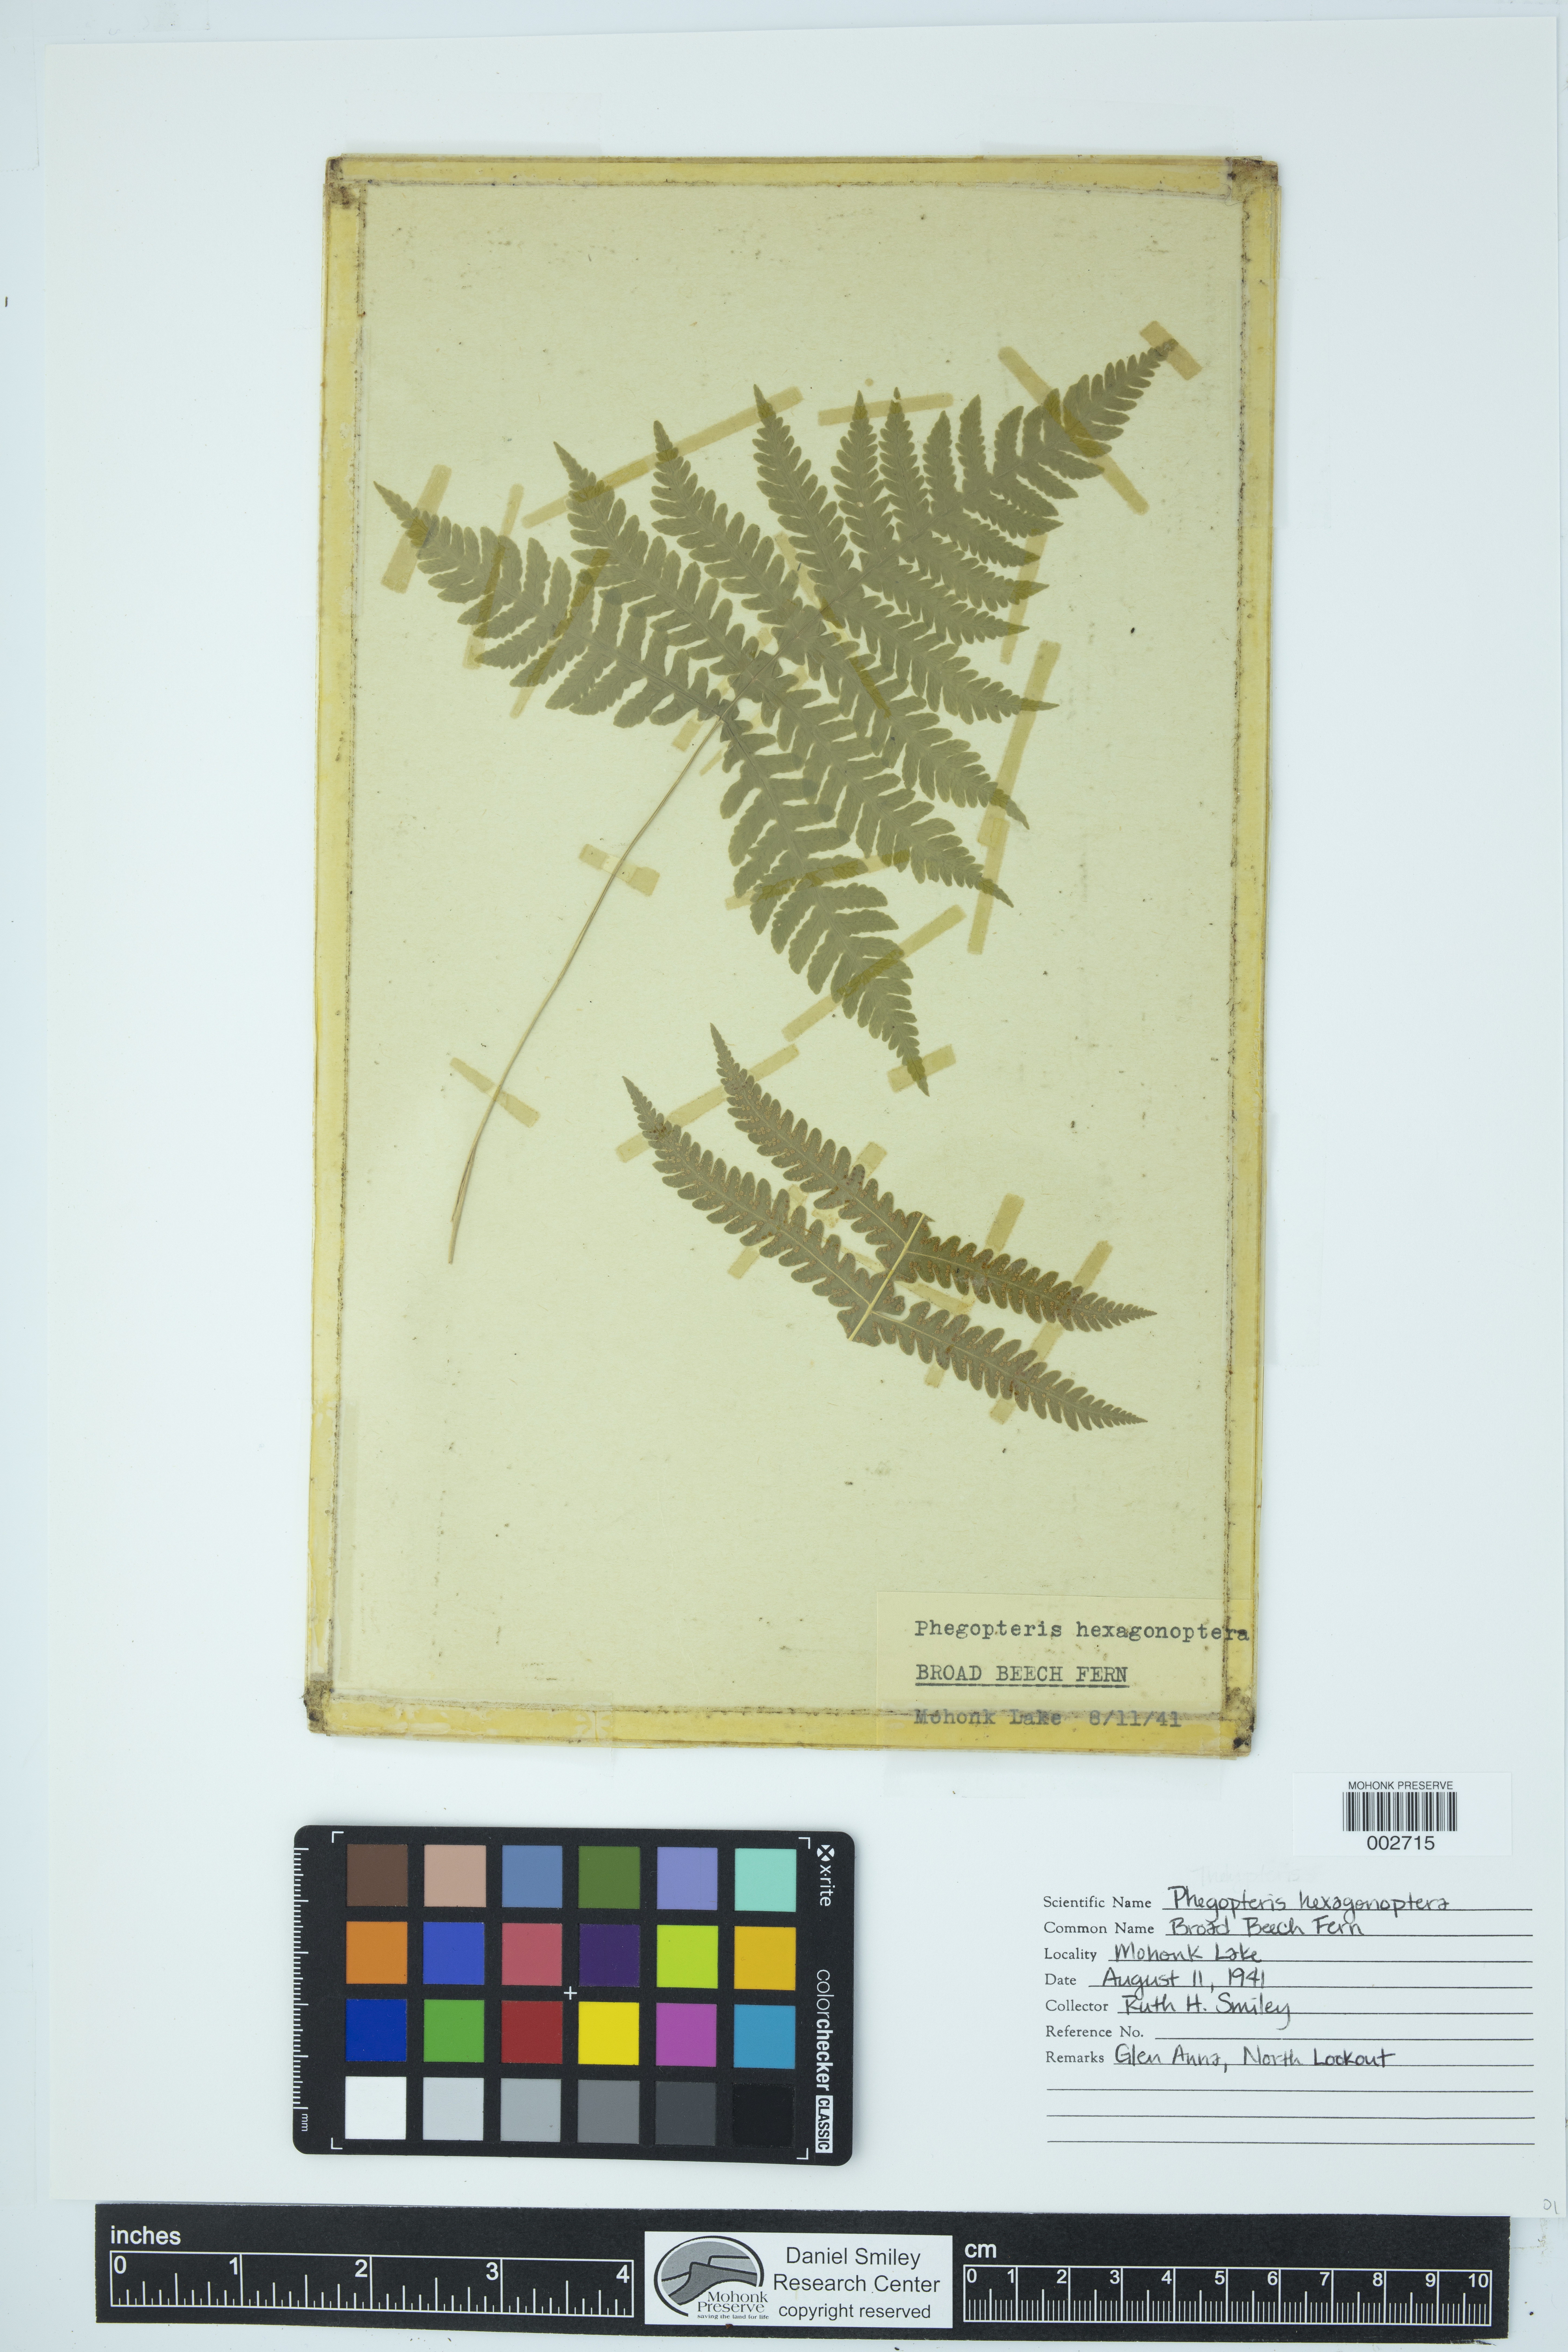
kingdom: Plantae
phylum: Tracheophyta
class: Polypodiopsida
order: Polypodiales
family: Thelypteridaceae
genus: Phegopteris
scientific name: Phegopteris hexagonoptera
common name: Broad beech fern
